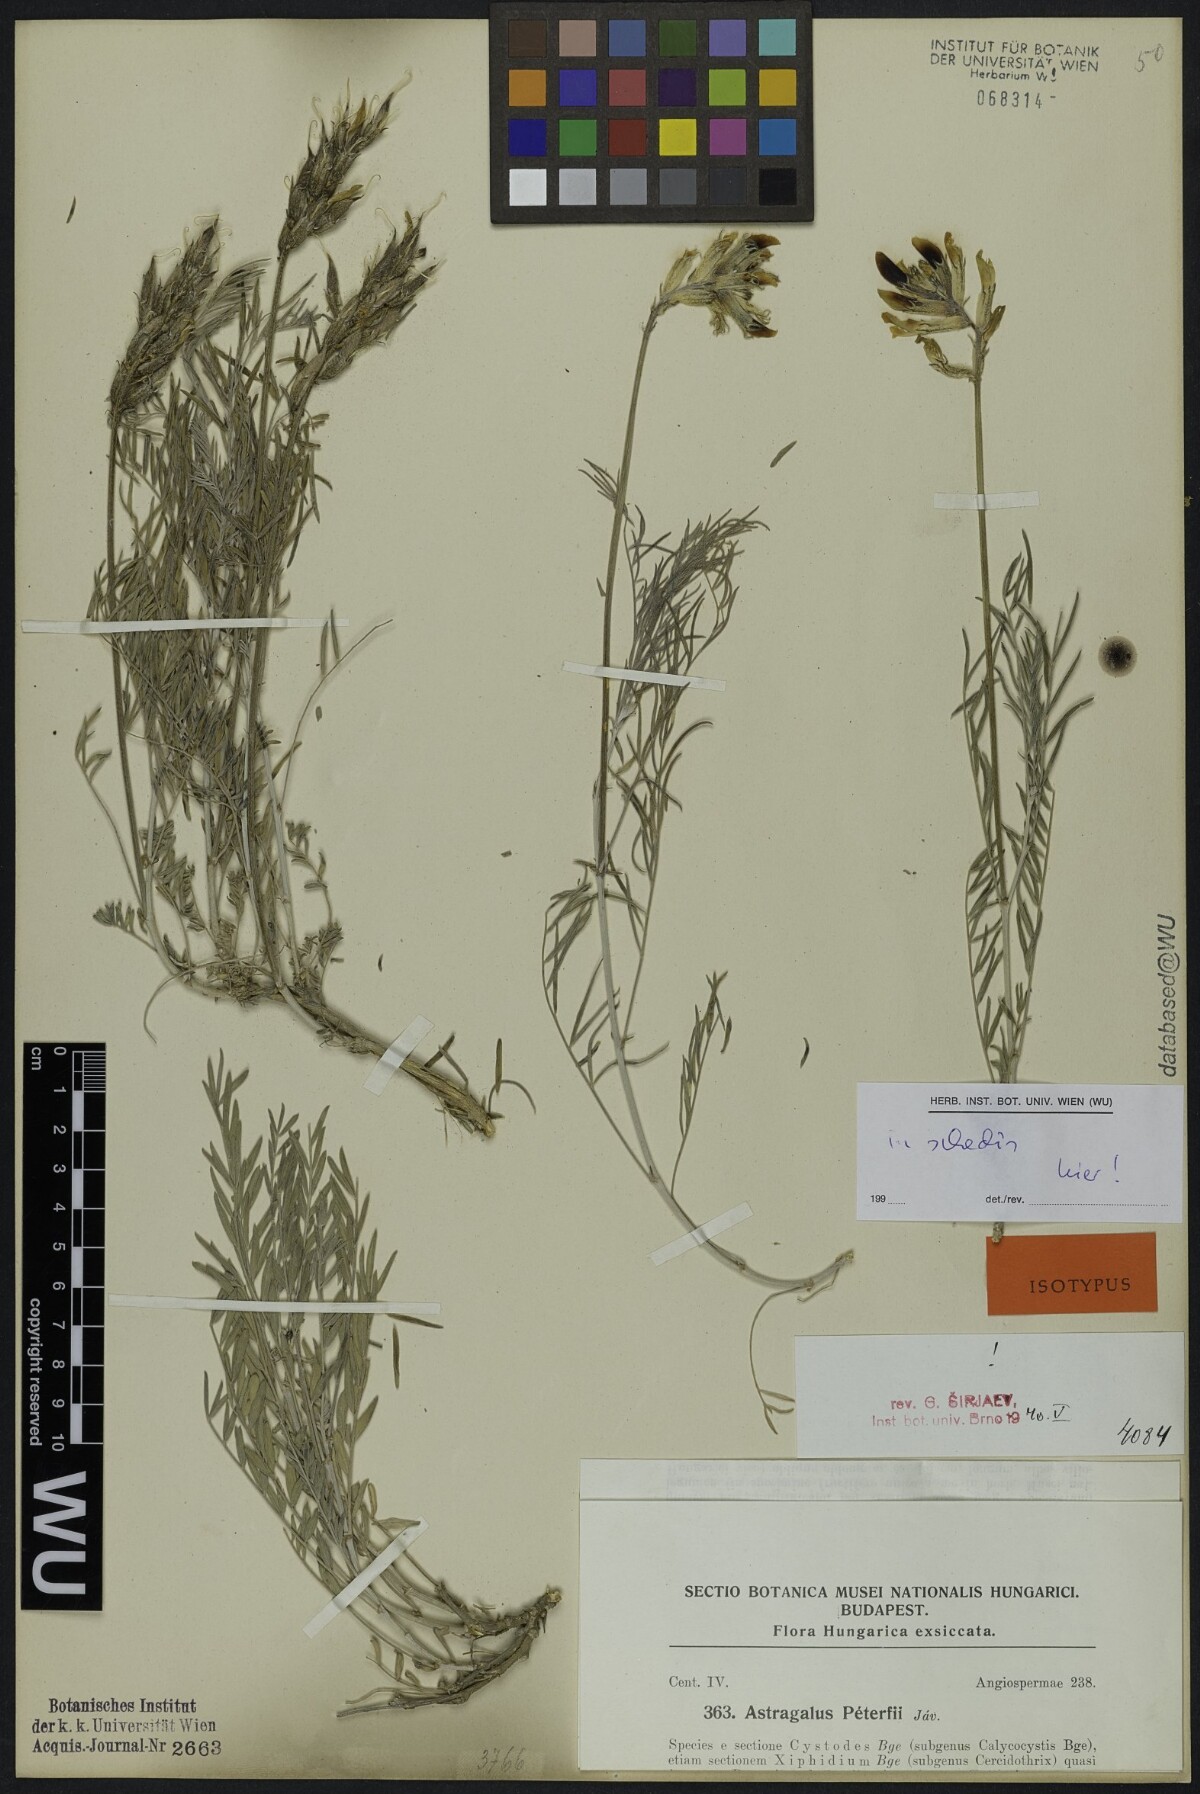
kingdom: Plantae
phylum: Tracheophyta
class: Magnoliopsida
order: Fabales
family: Fabaceae
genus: Astragalus
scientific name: Astragalus peterfii
